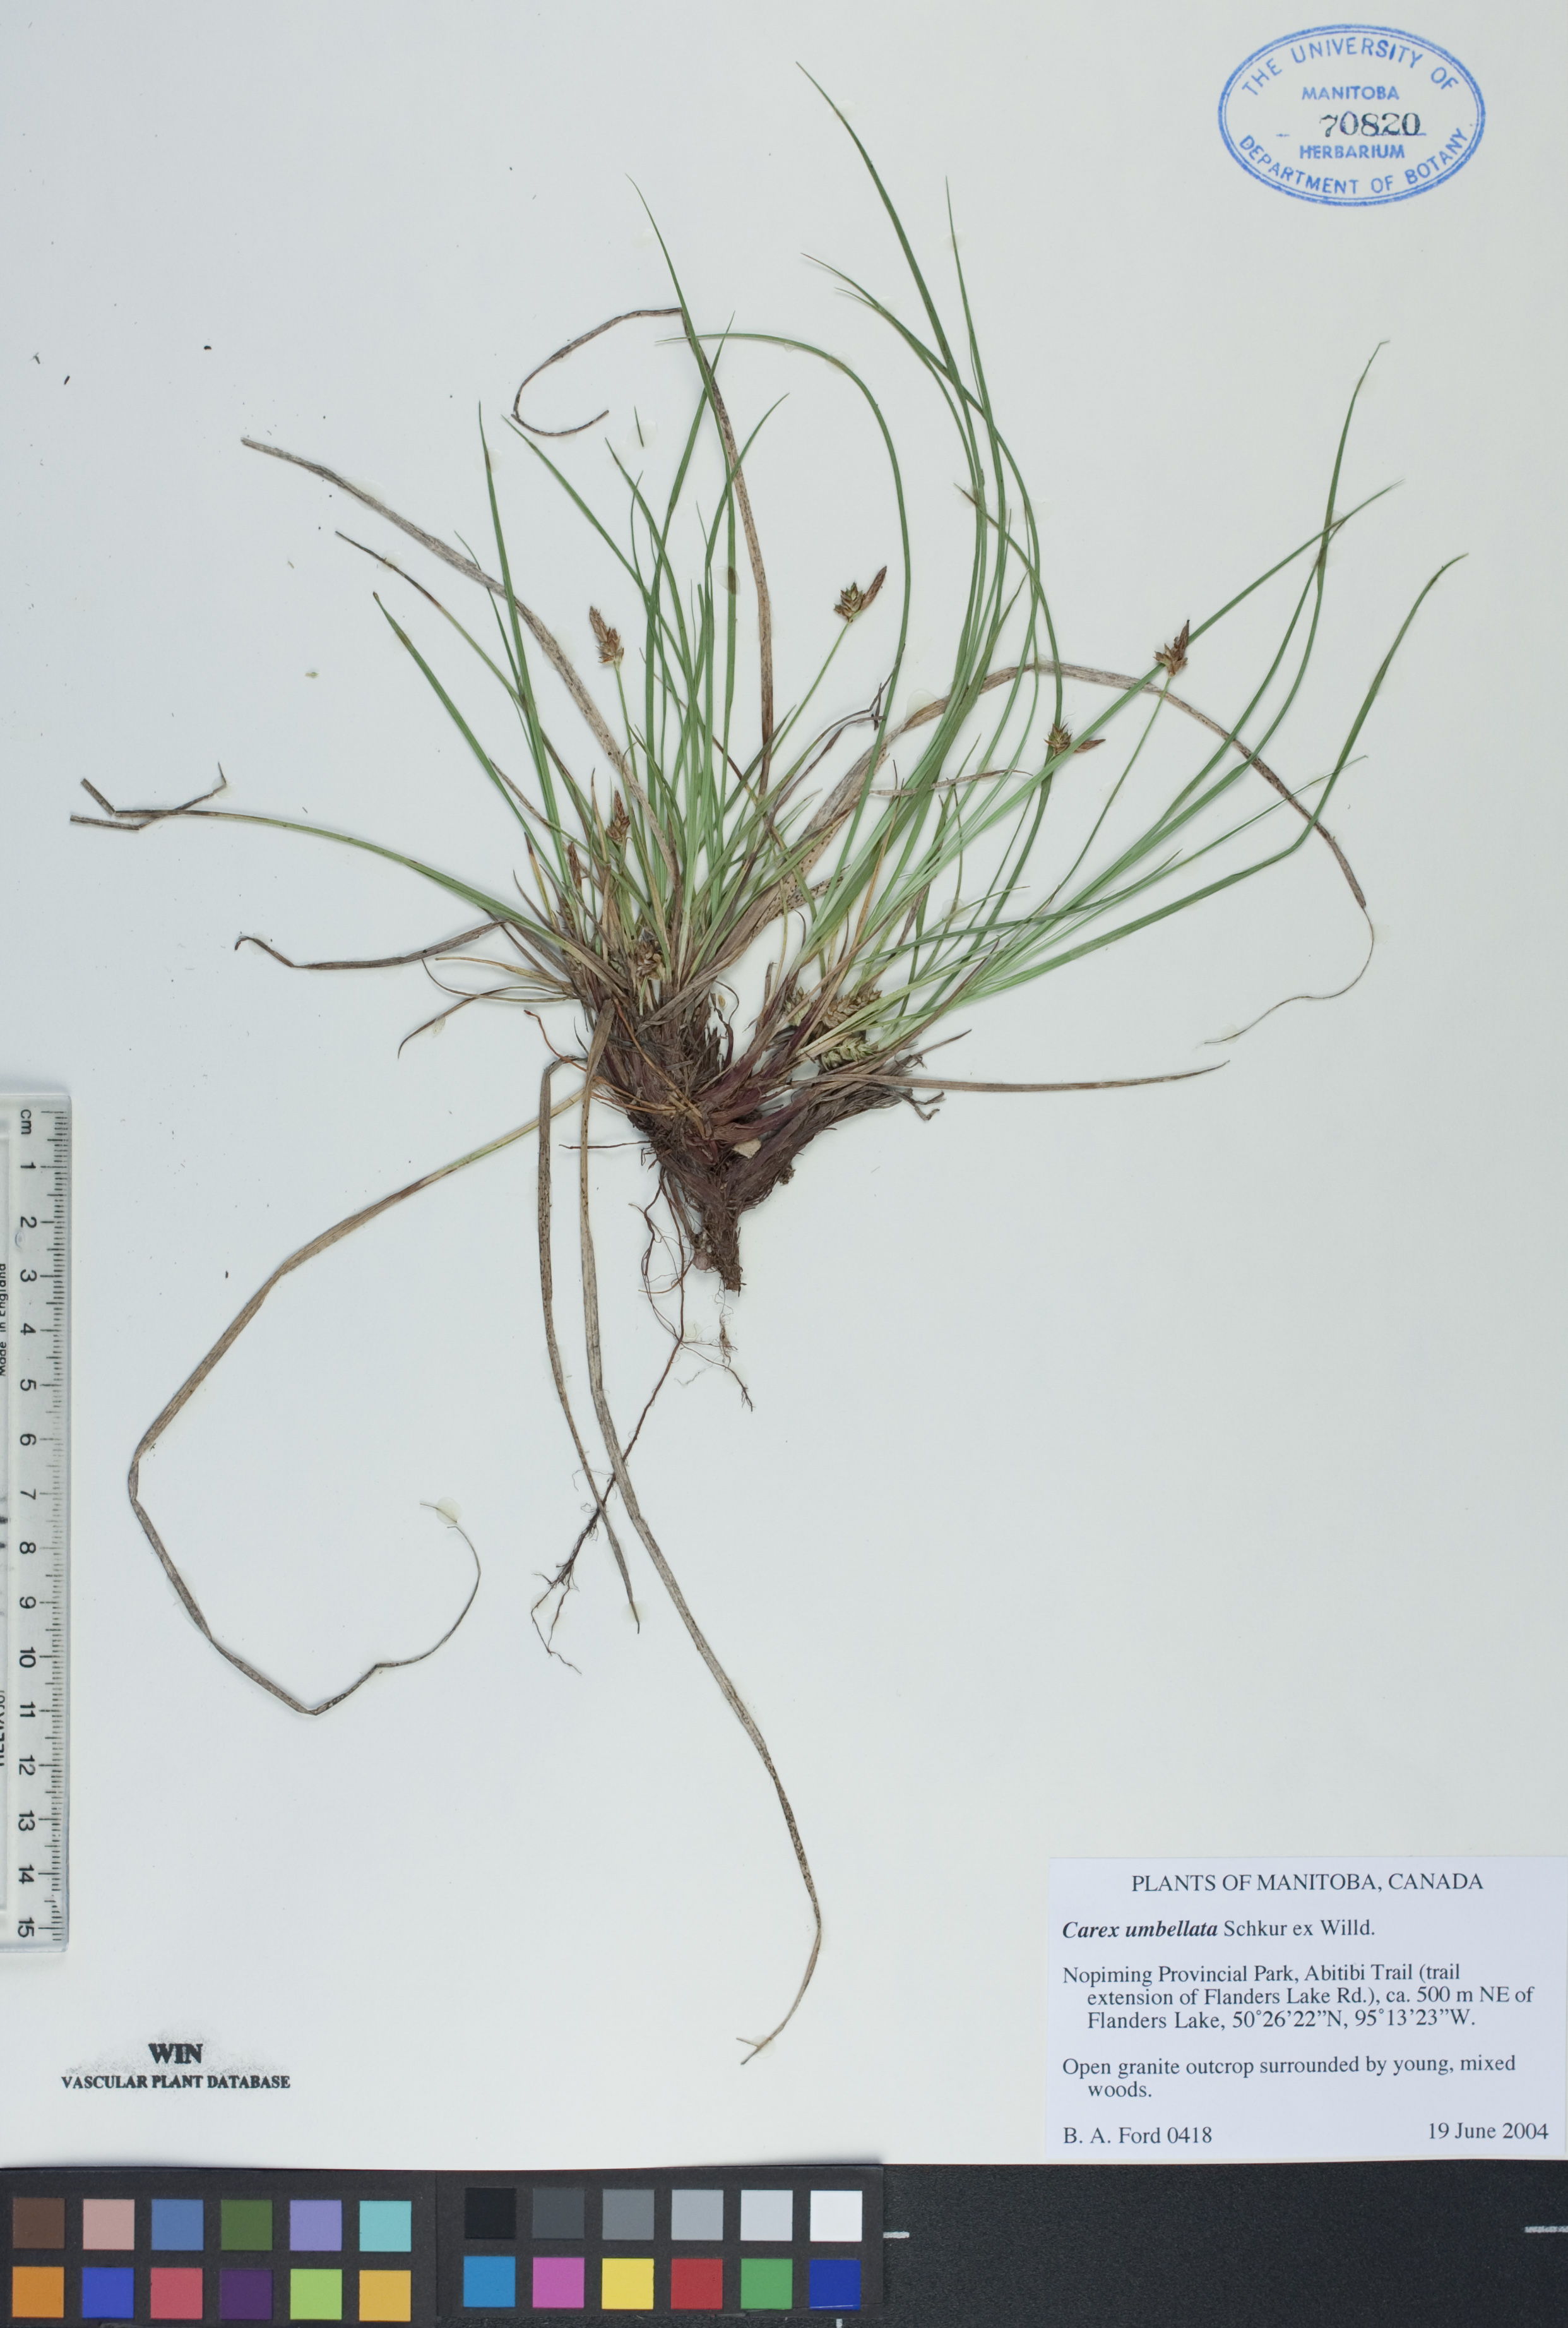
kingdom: Plantae
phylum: Tracheophyta
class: Liliopsida
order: Poales
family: Cyperaceae
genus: Carex
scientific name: Carex umbellata
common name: Early oak sedge
